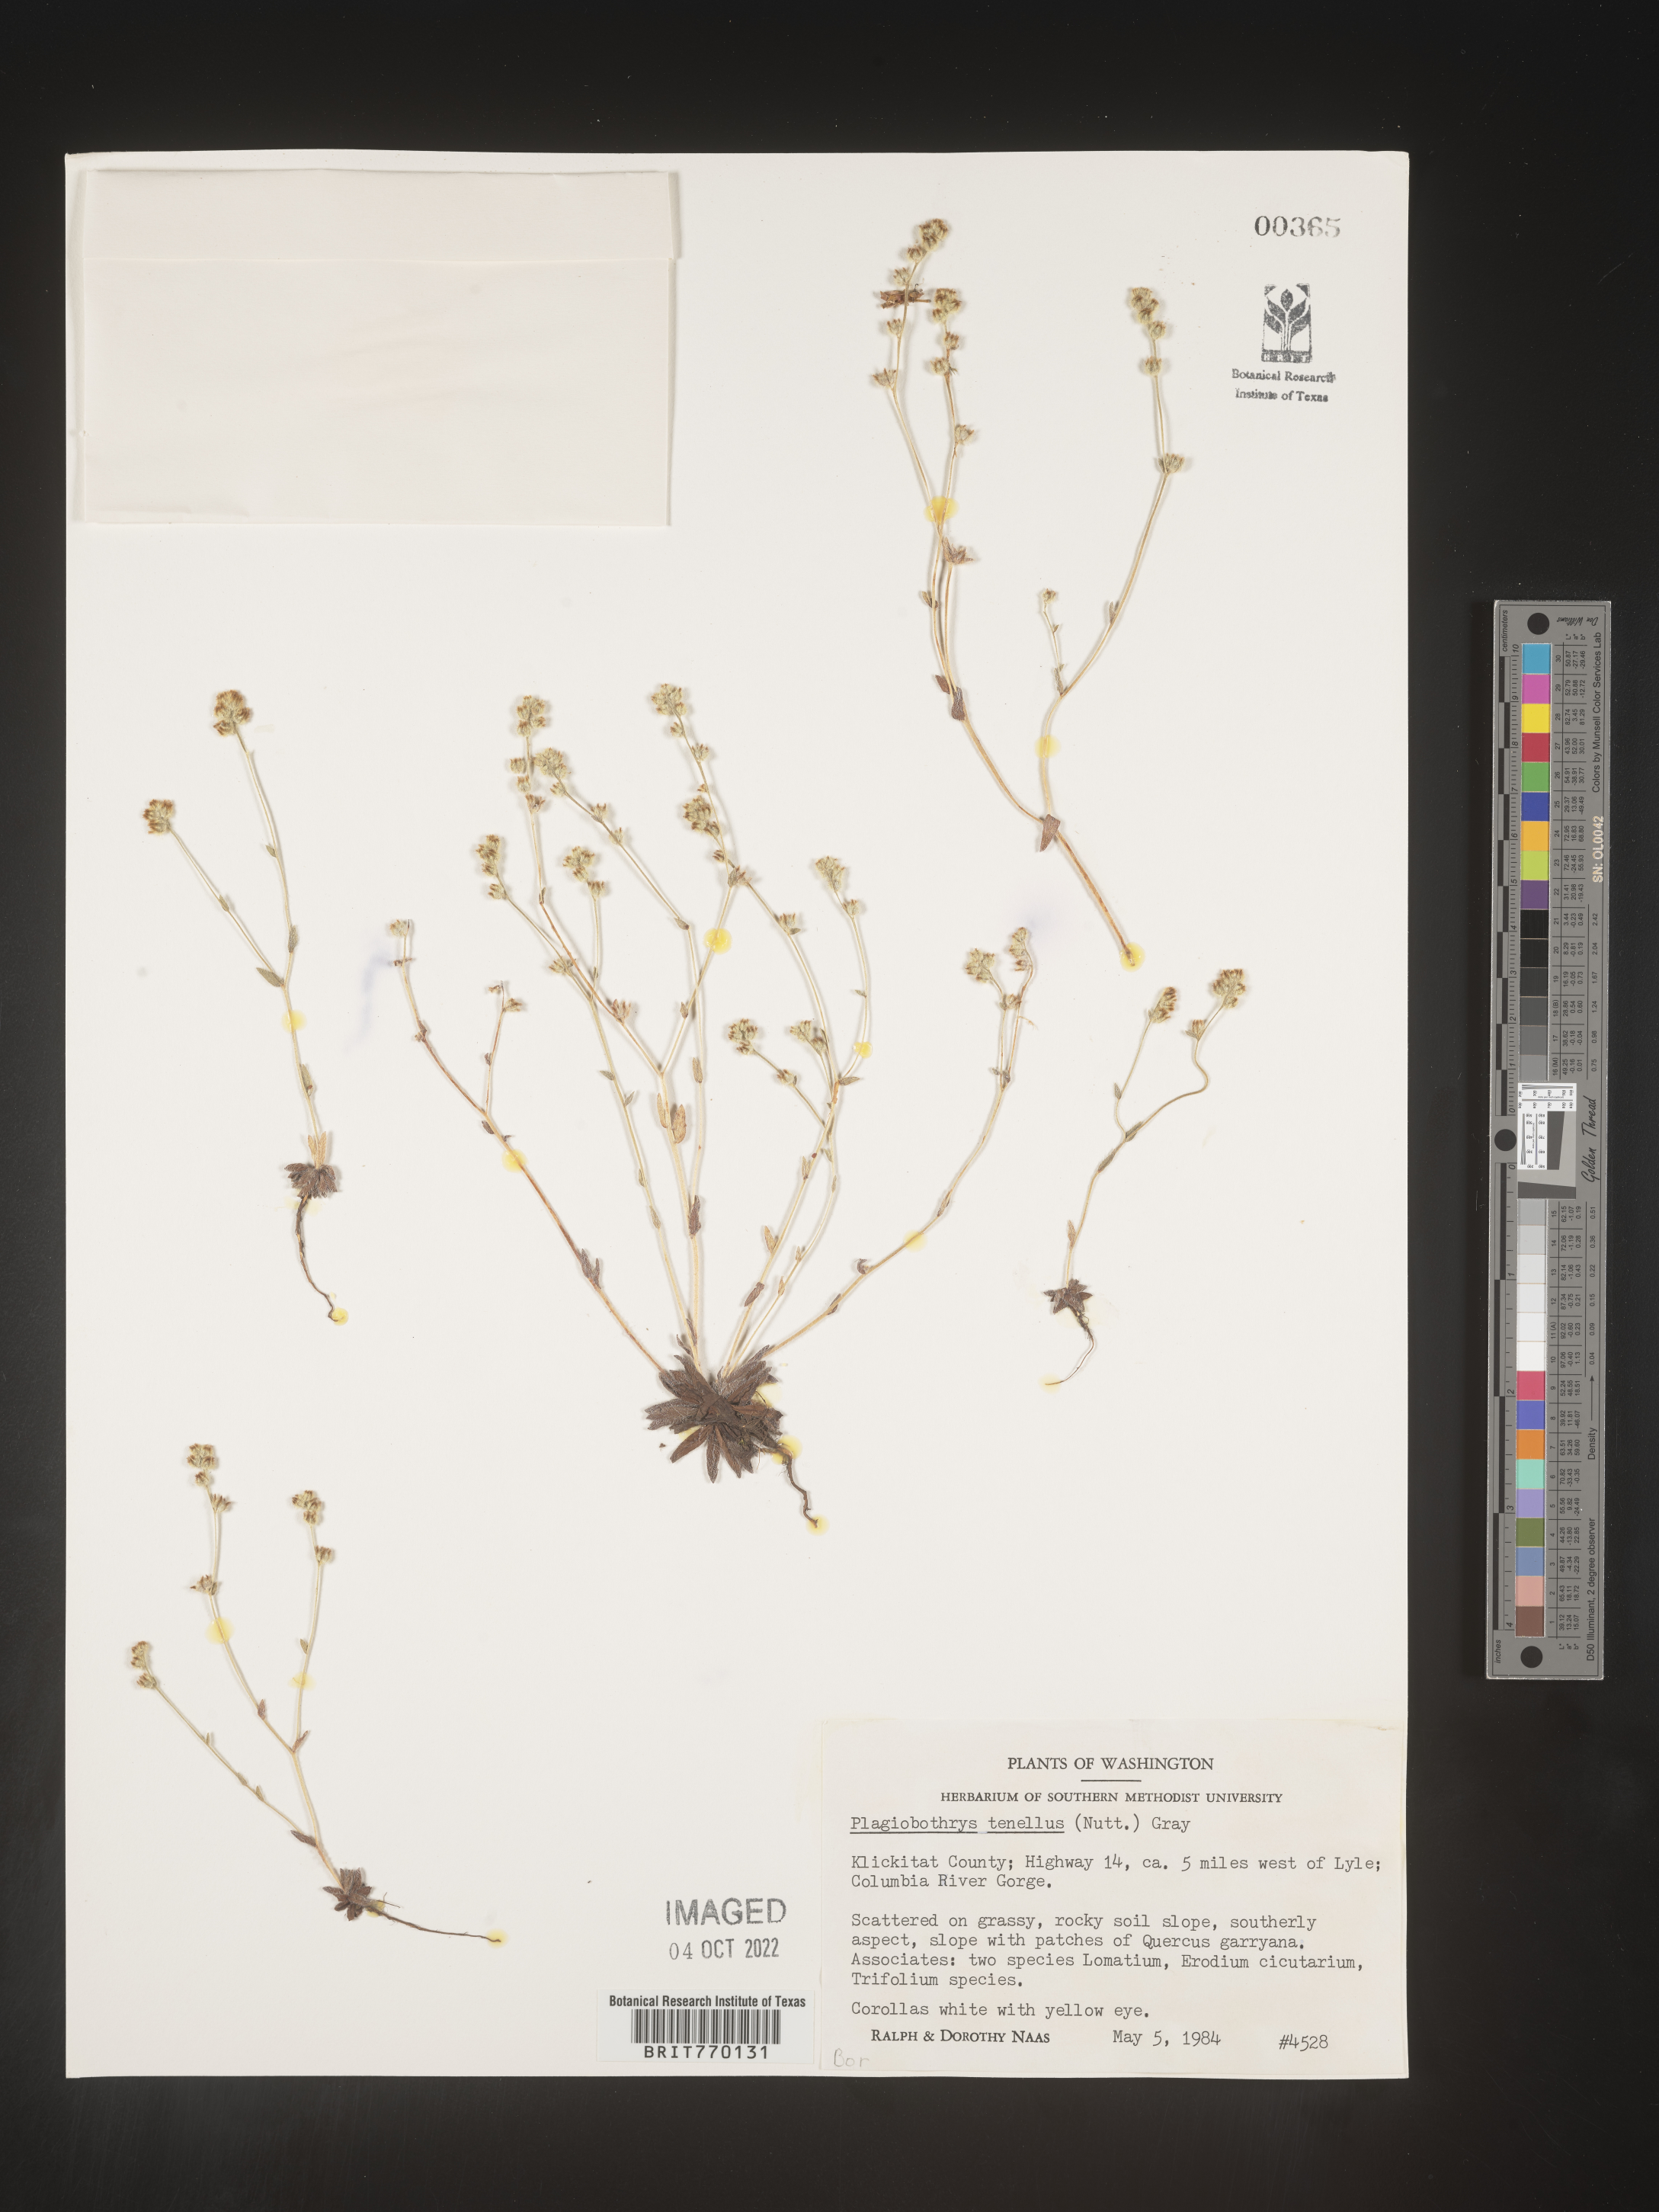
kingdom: Plantae
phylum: Tracheophyta
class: Magnoliopsida
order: Boraginales
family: Boraginaceae
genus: Plagiobothrys
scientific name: Plagiobothrys
